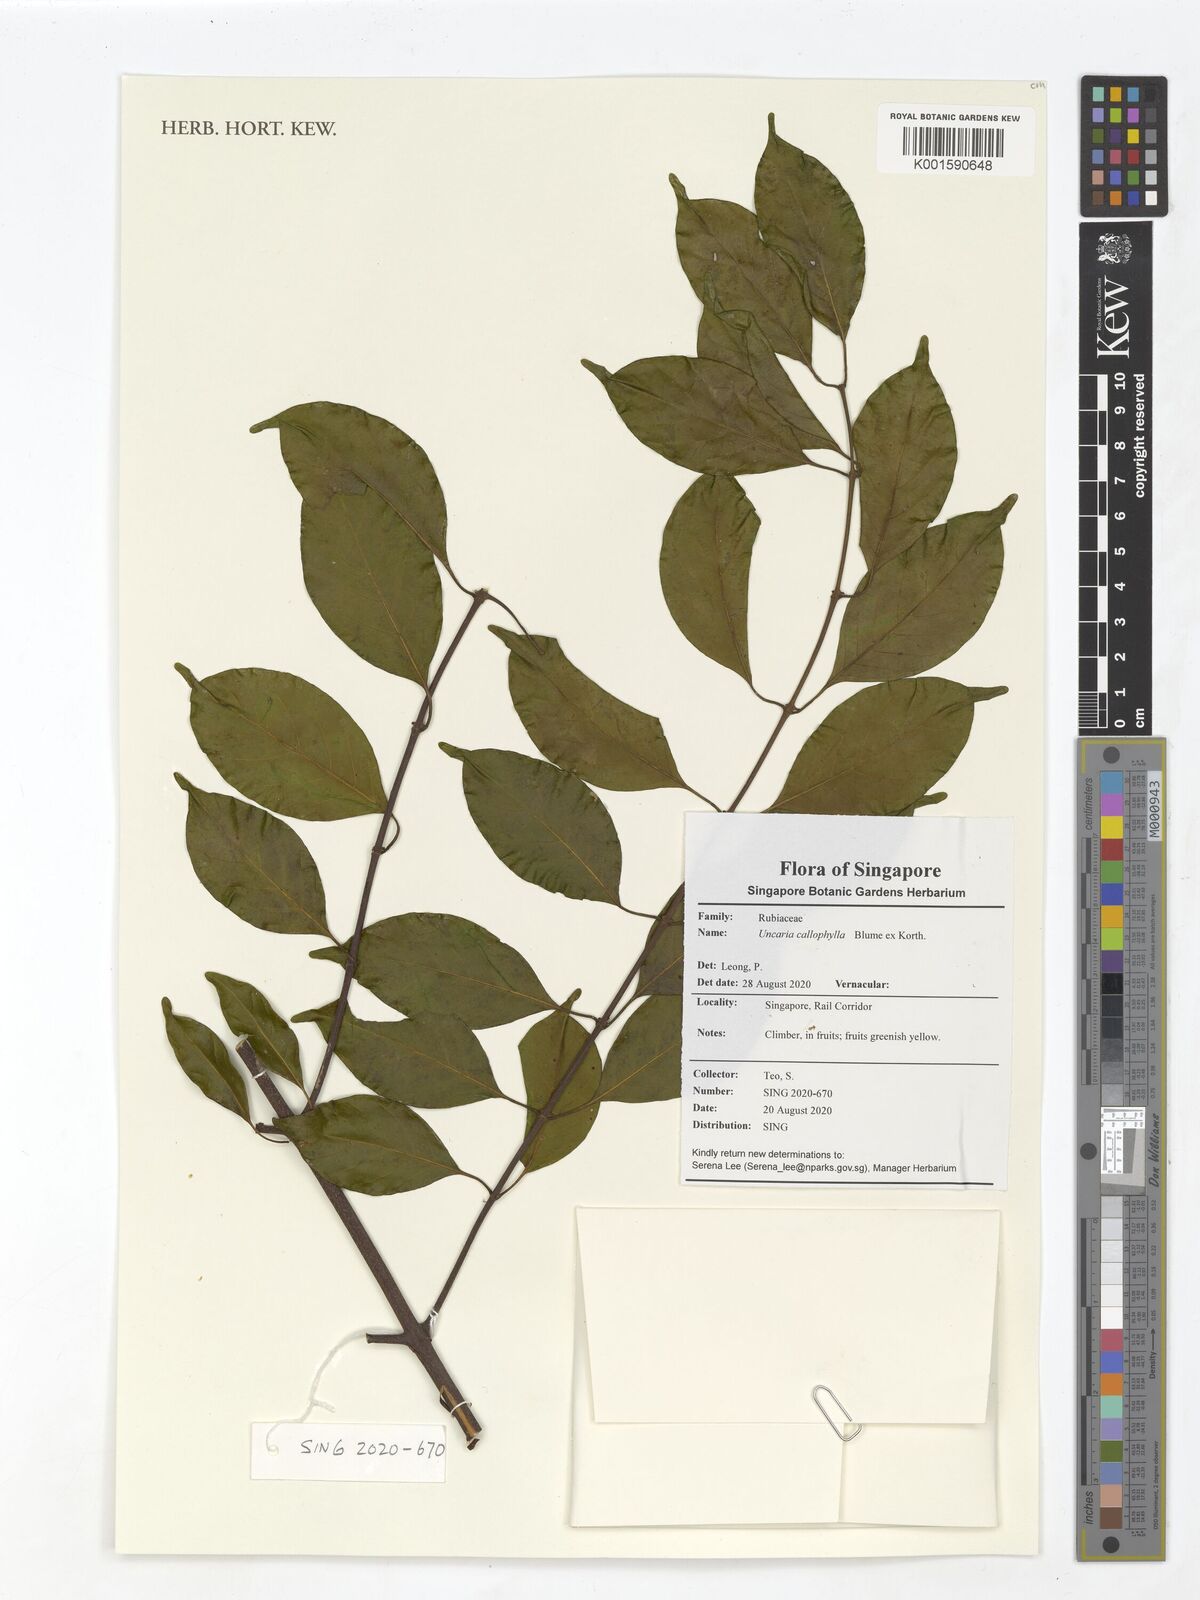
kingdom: Plantae
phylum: Tracheophyta
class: Magnoliopsida
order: Gentianales
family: Rubiaceae
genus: Uncaria
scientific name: Uncaria callophylla
